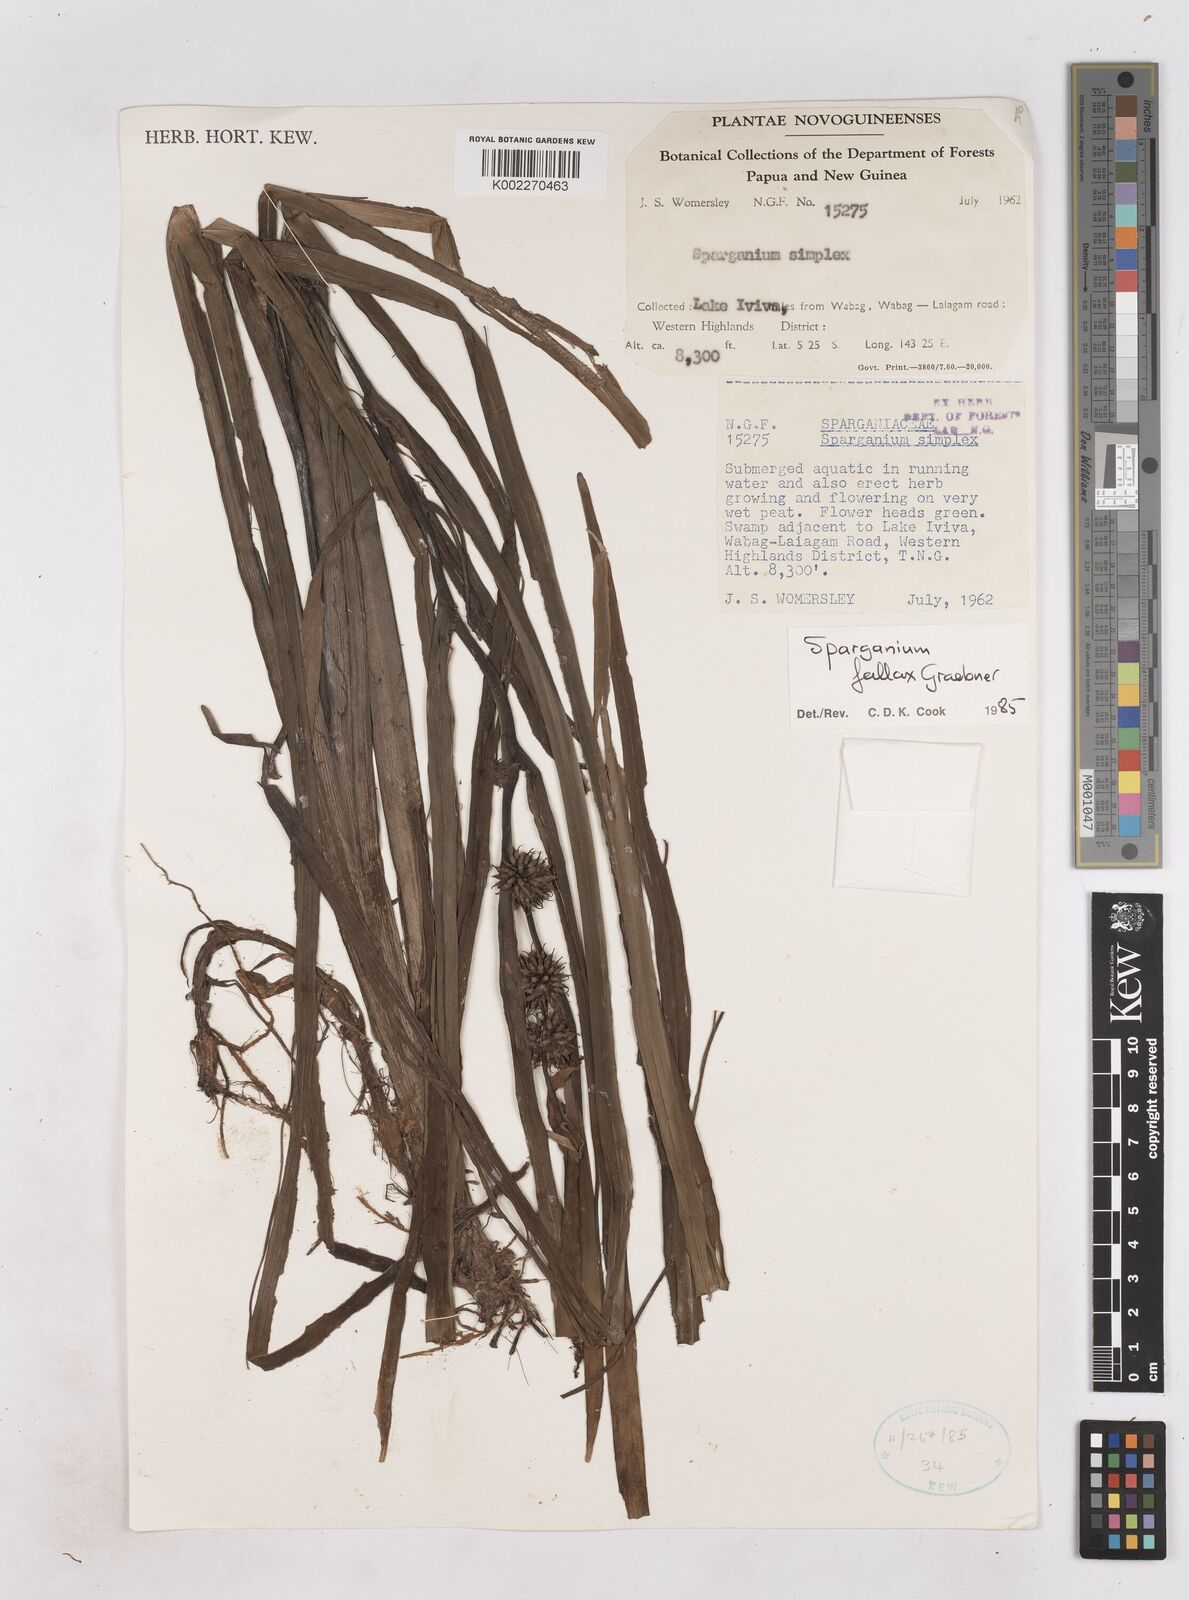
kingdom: Plantae
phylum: Tracheophyta
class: Liliopsida
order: Poales
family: Typhaceae
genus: Sparganium
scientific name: Sparganium fallax
